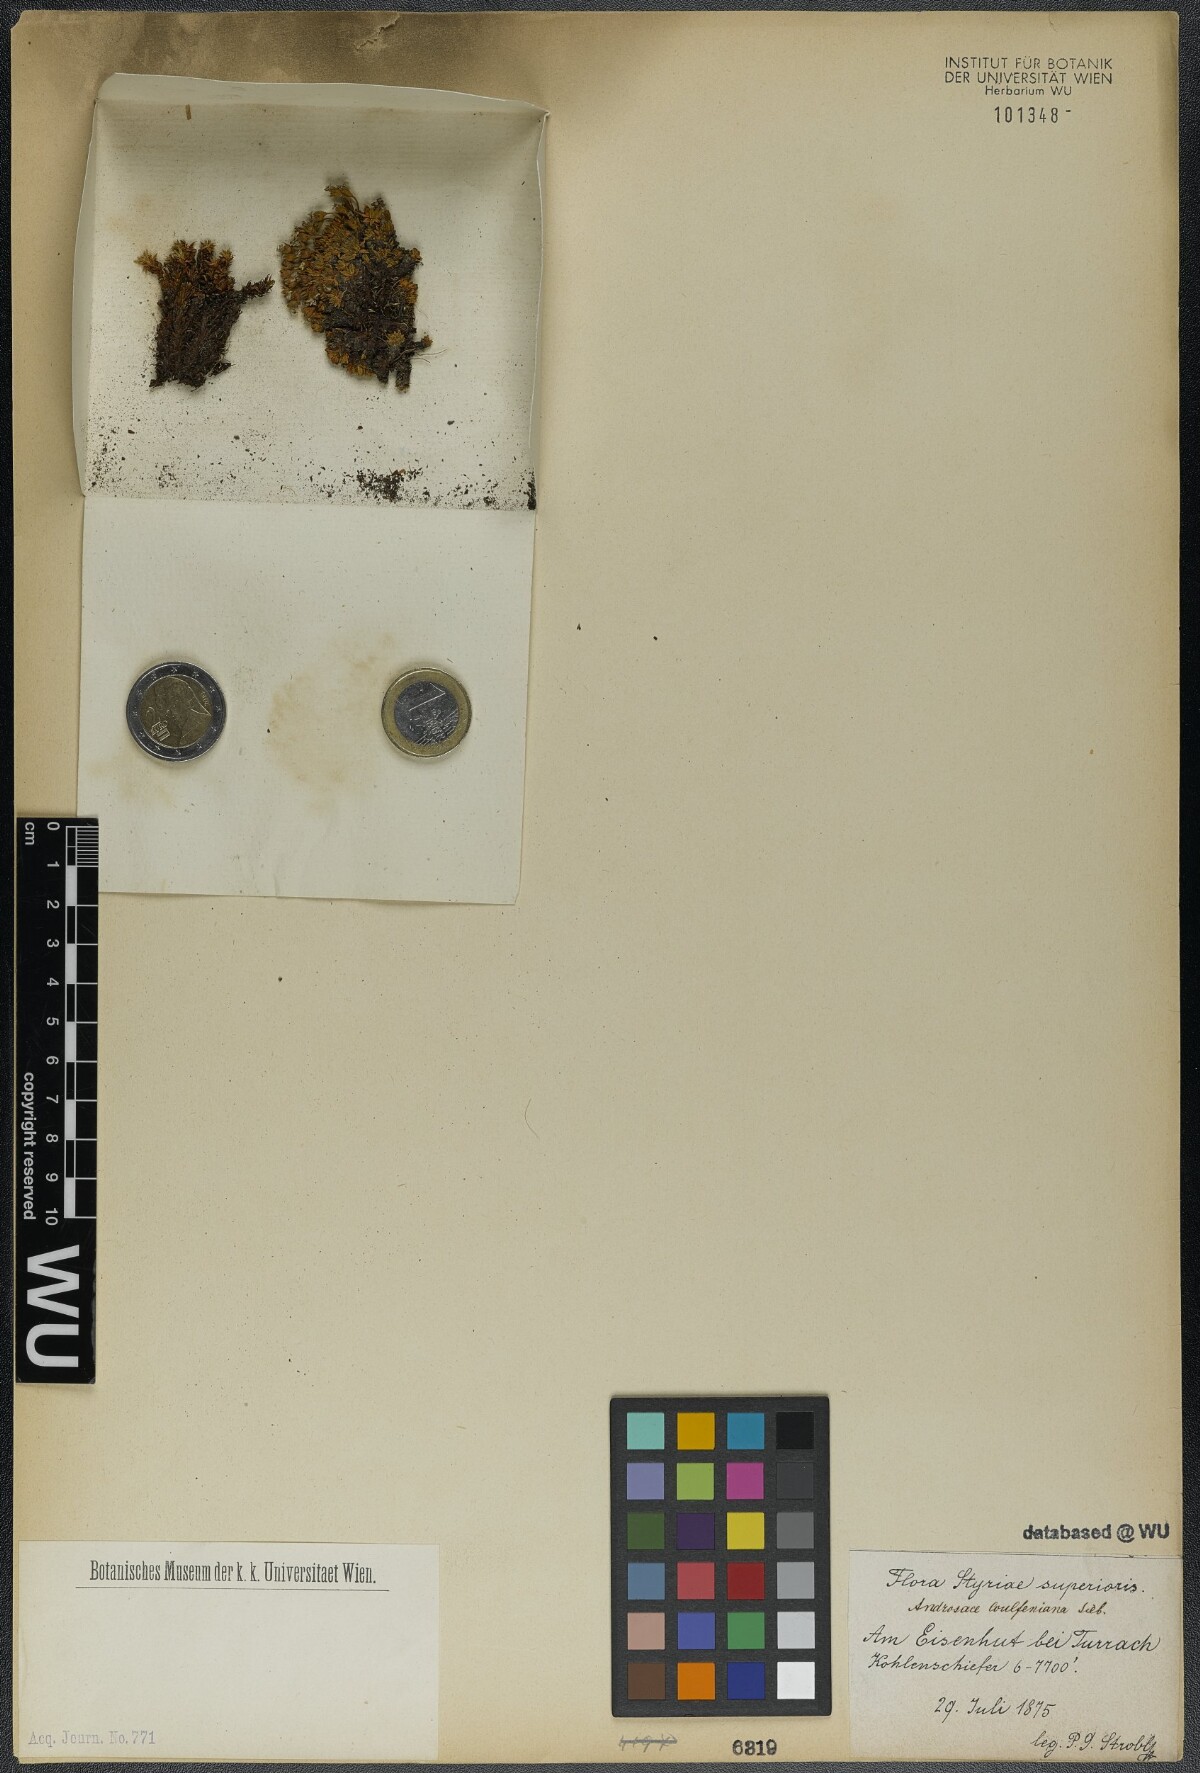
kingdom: Plantae
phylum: Tracheophyta
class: Magnoliopsida
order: Ericales
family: Primulaceae
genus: Androsace
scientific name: Androsace wulfeniana
